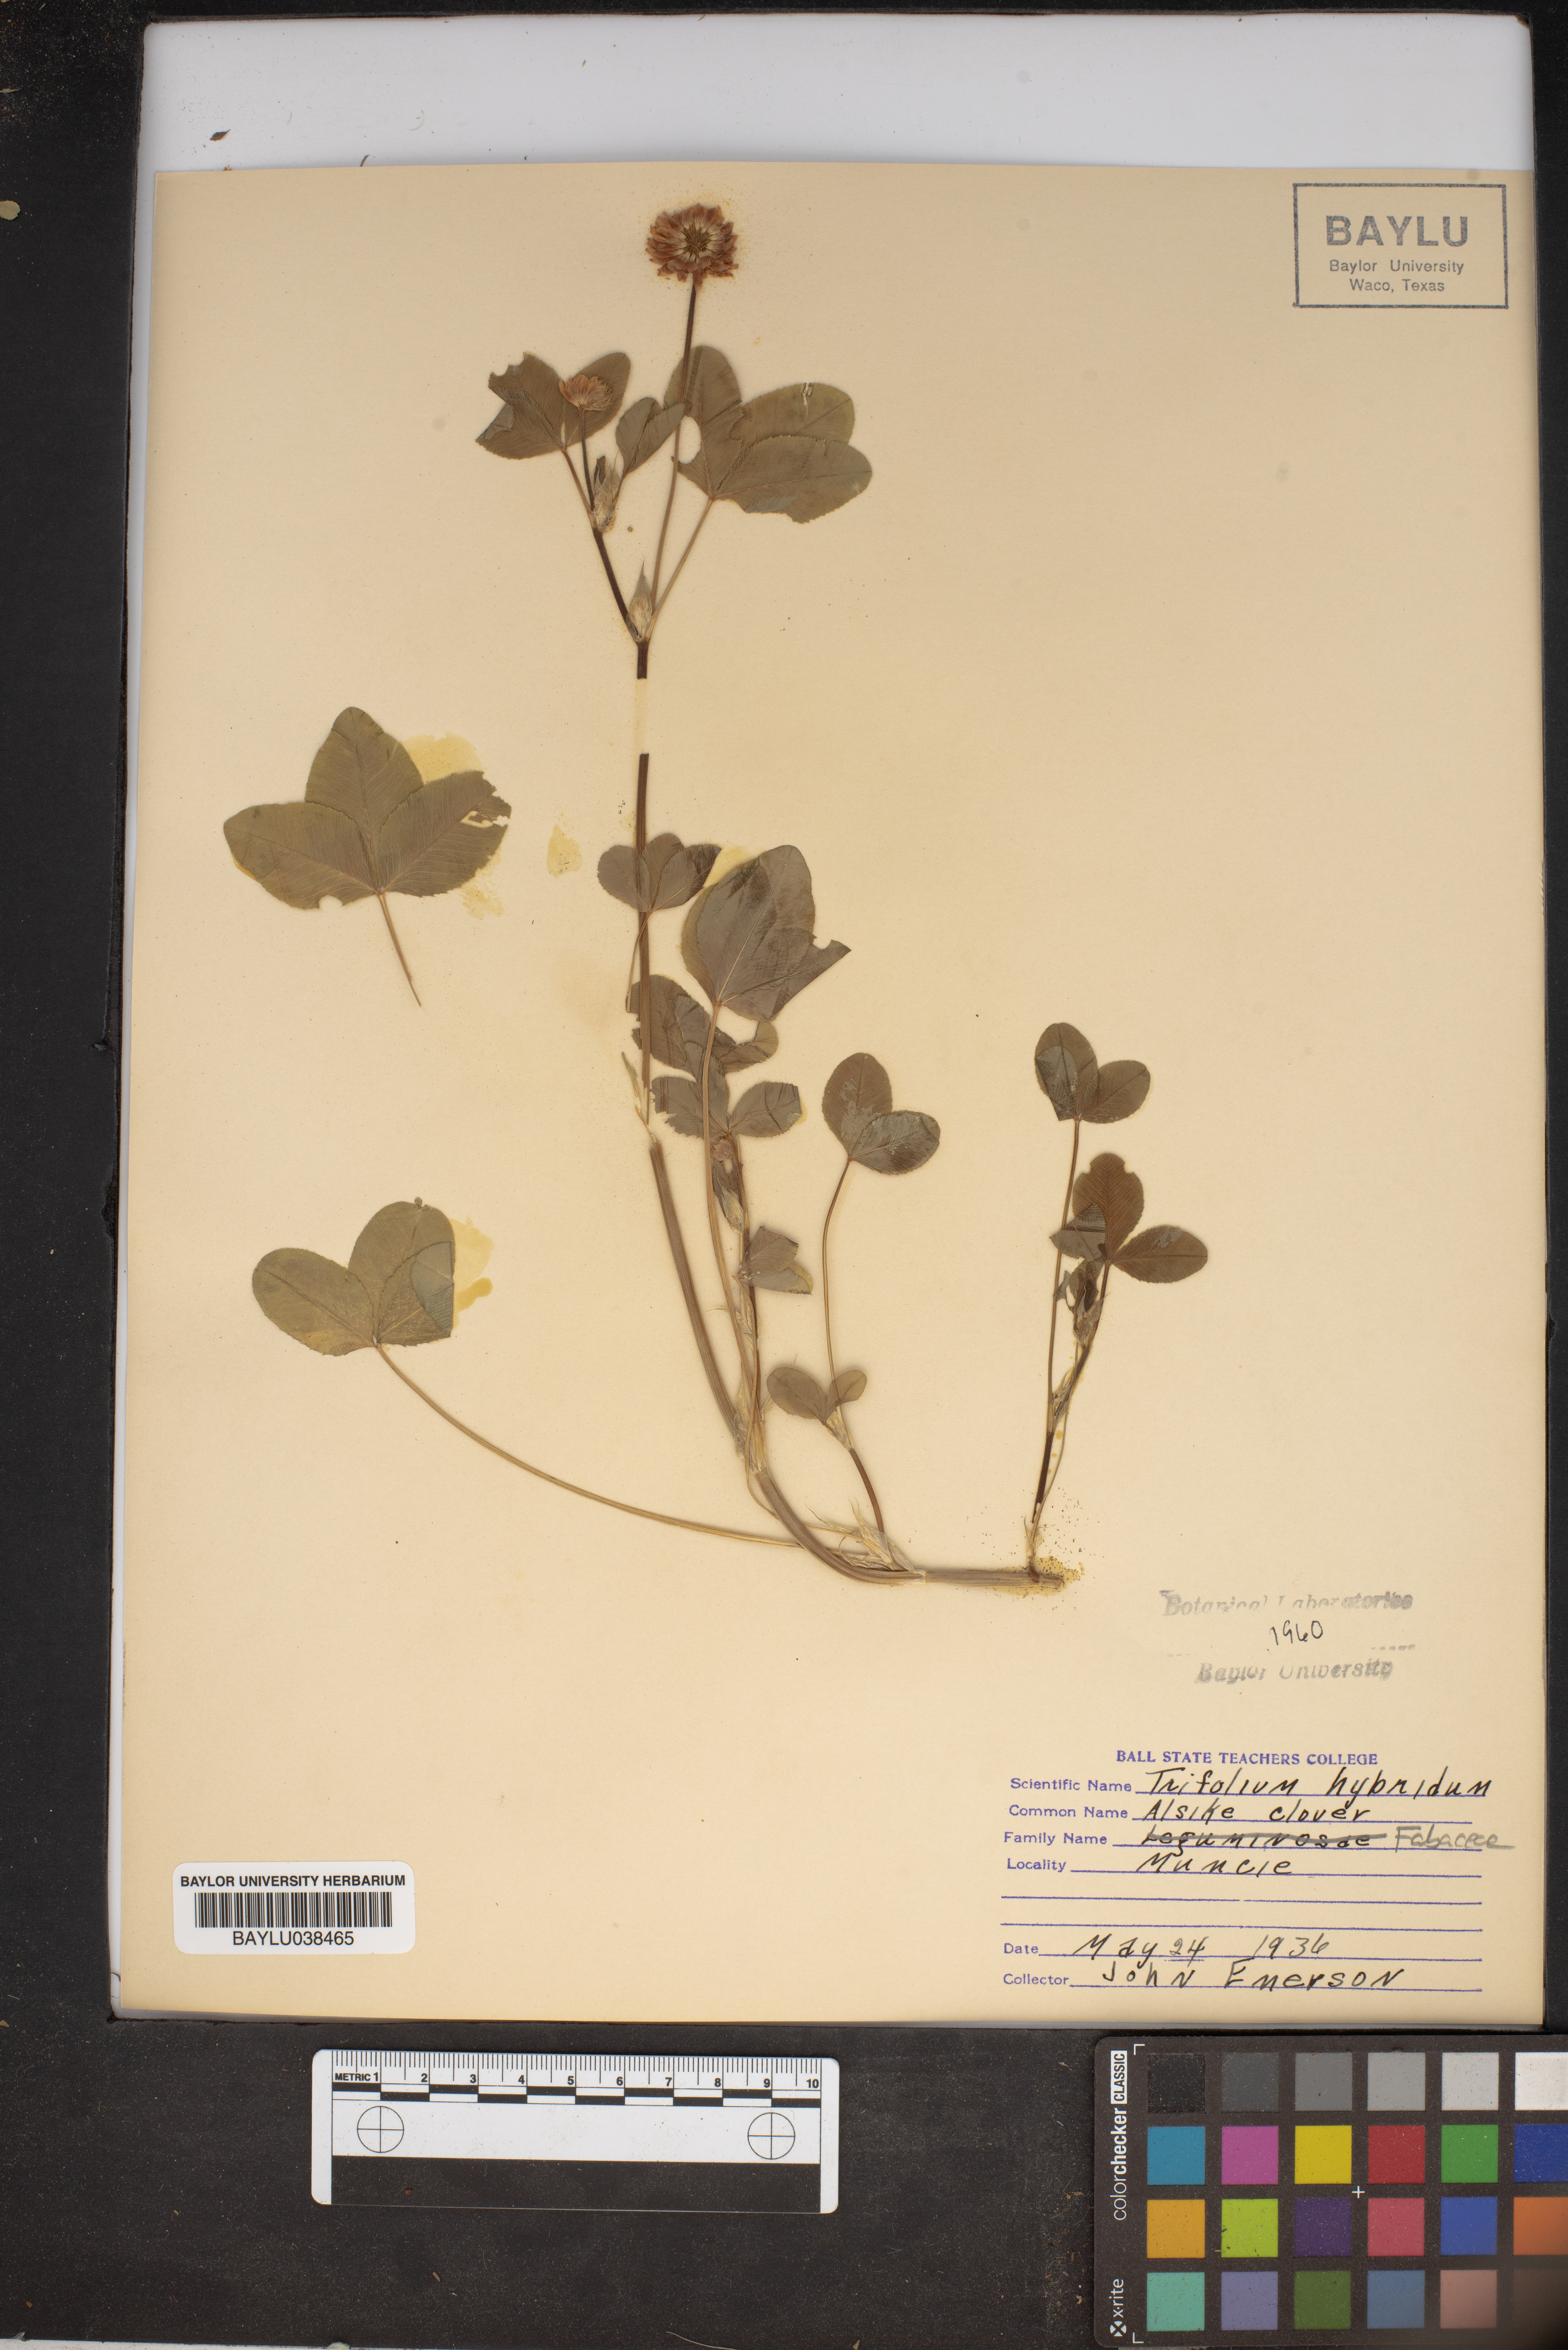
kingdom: Plantae
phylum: Tracheophyta
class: Magnoliopsida
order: Fabales
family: Fabaceae
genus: Trifolium
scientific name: Trifolium hybridum
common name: Alsike clover
